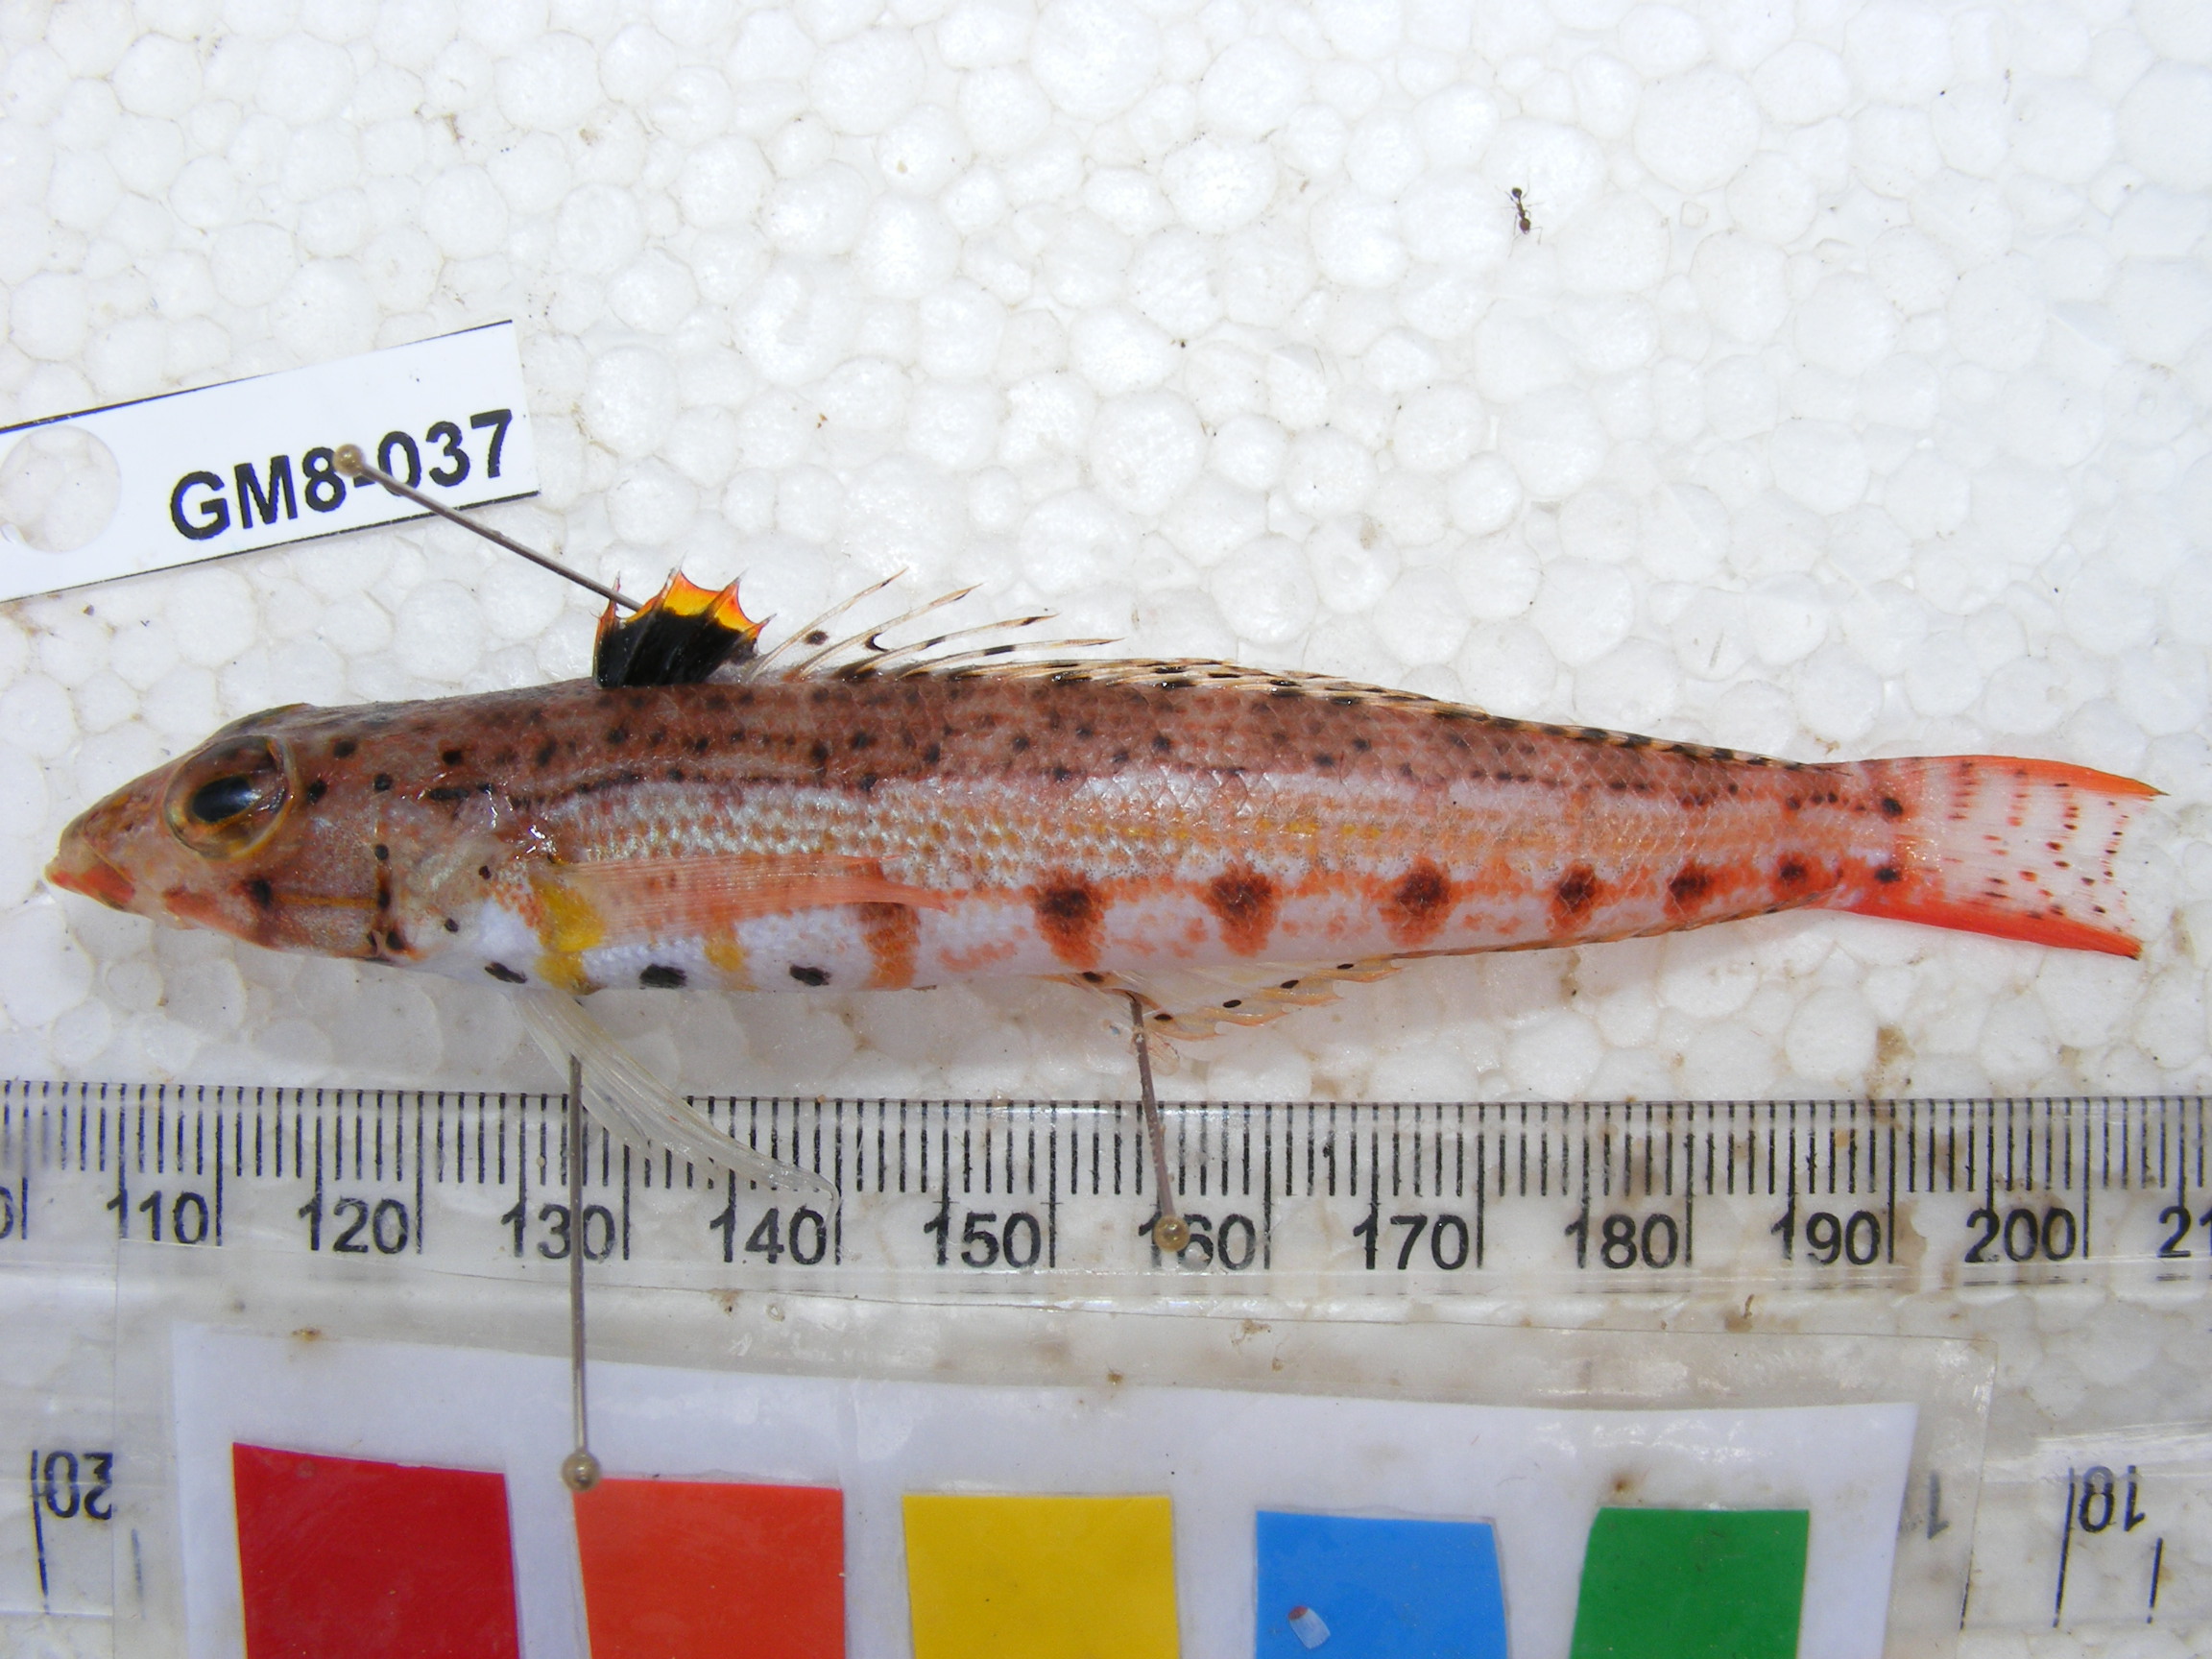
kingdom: Animalia
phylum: Chordata
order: Perciformes
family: Pinguipedidae
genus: Parapercis
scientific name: Parapercis punctulata
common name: Spotted sandperch
